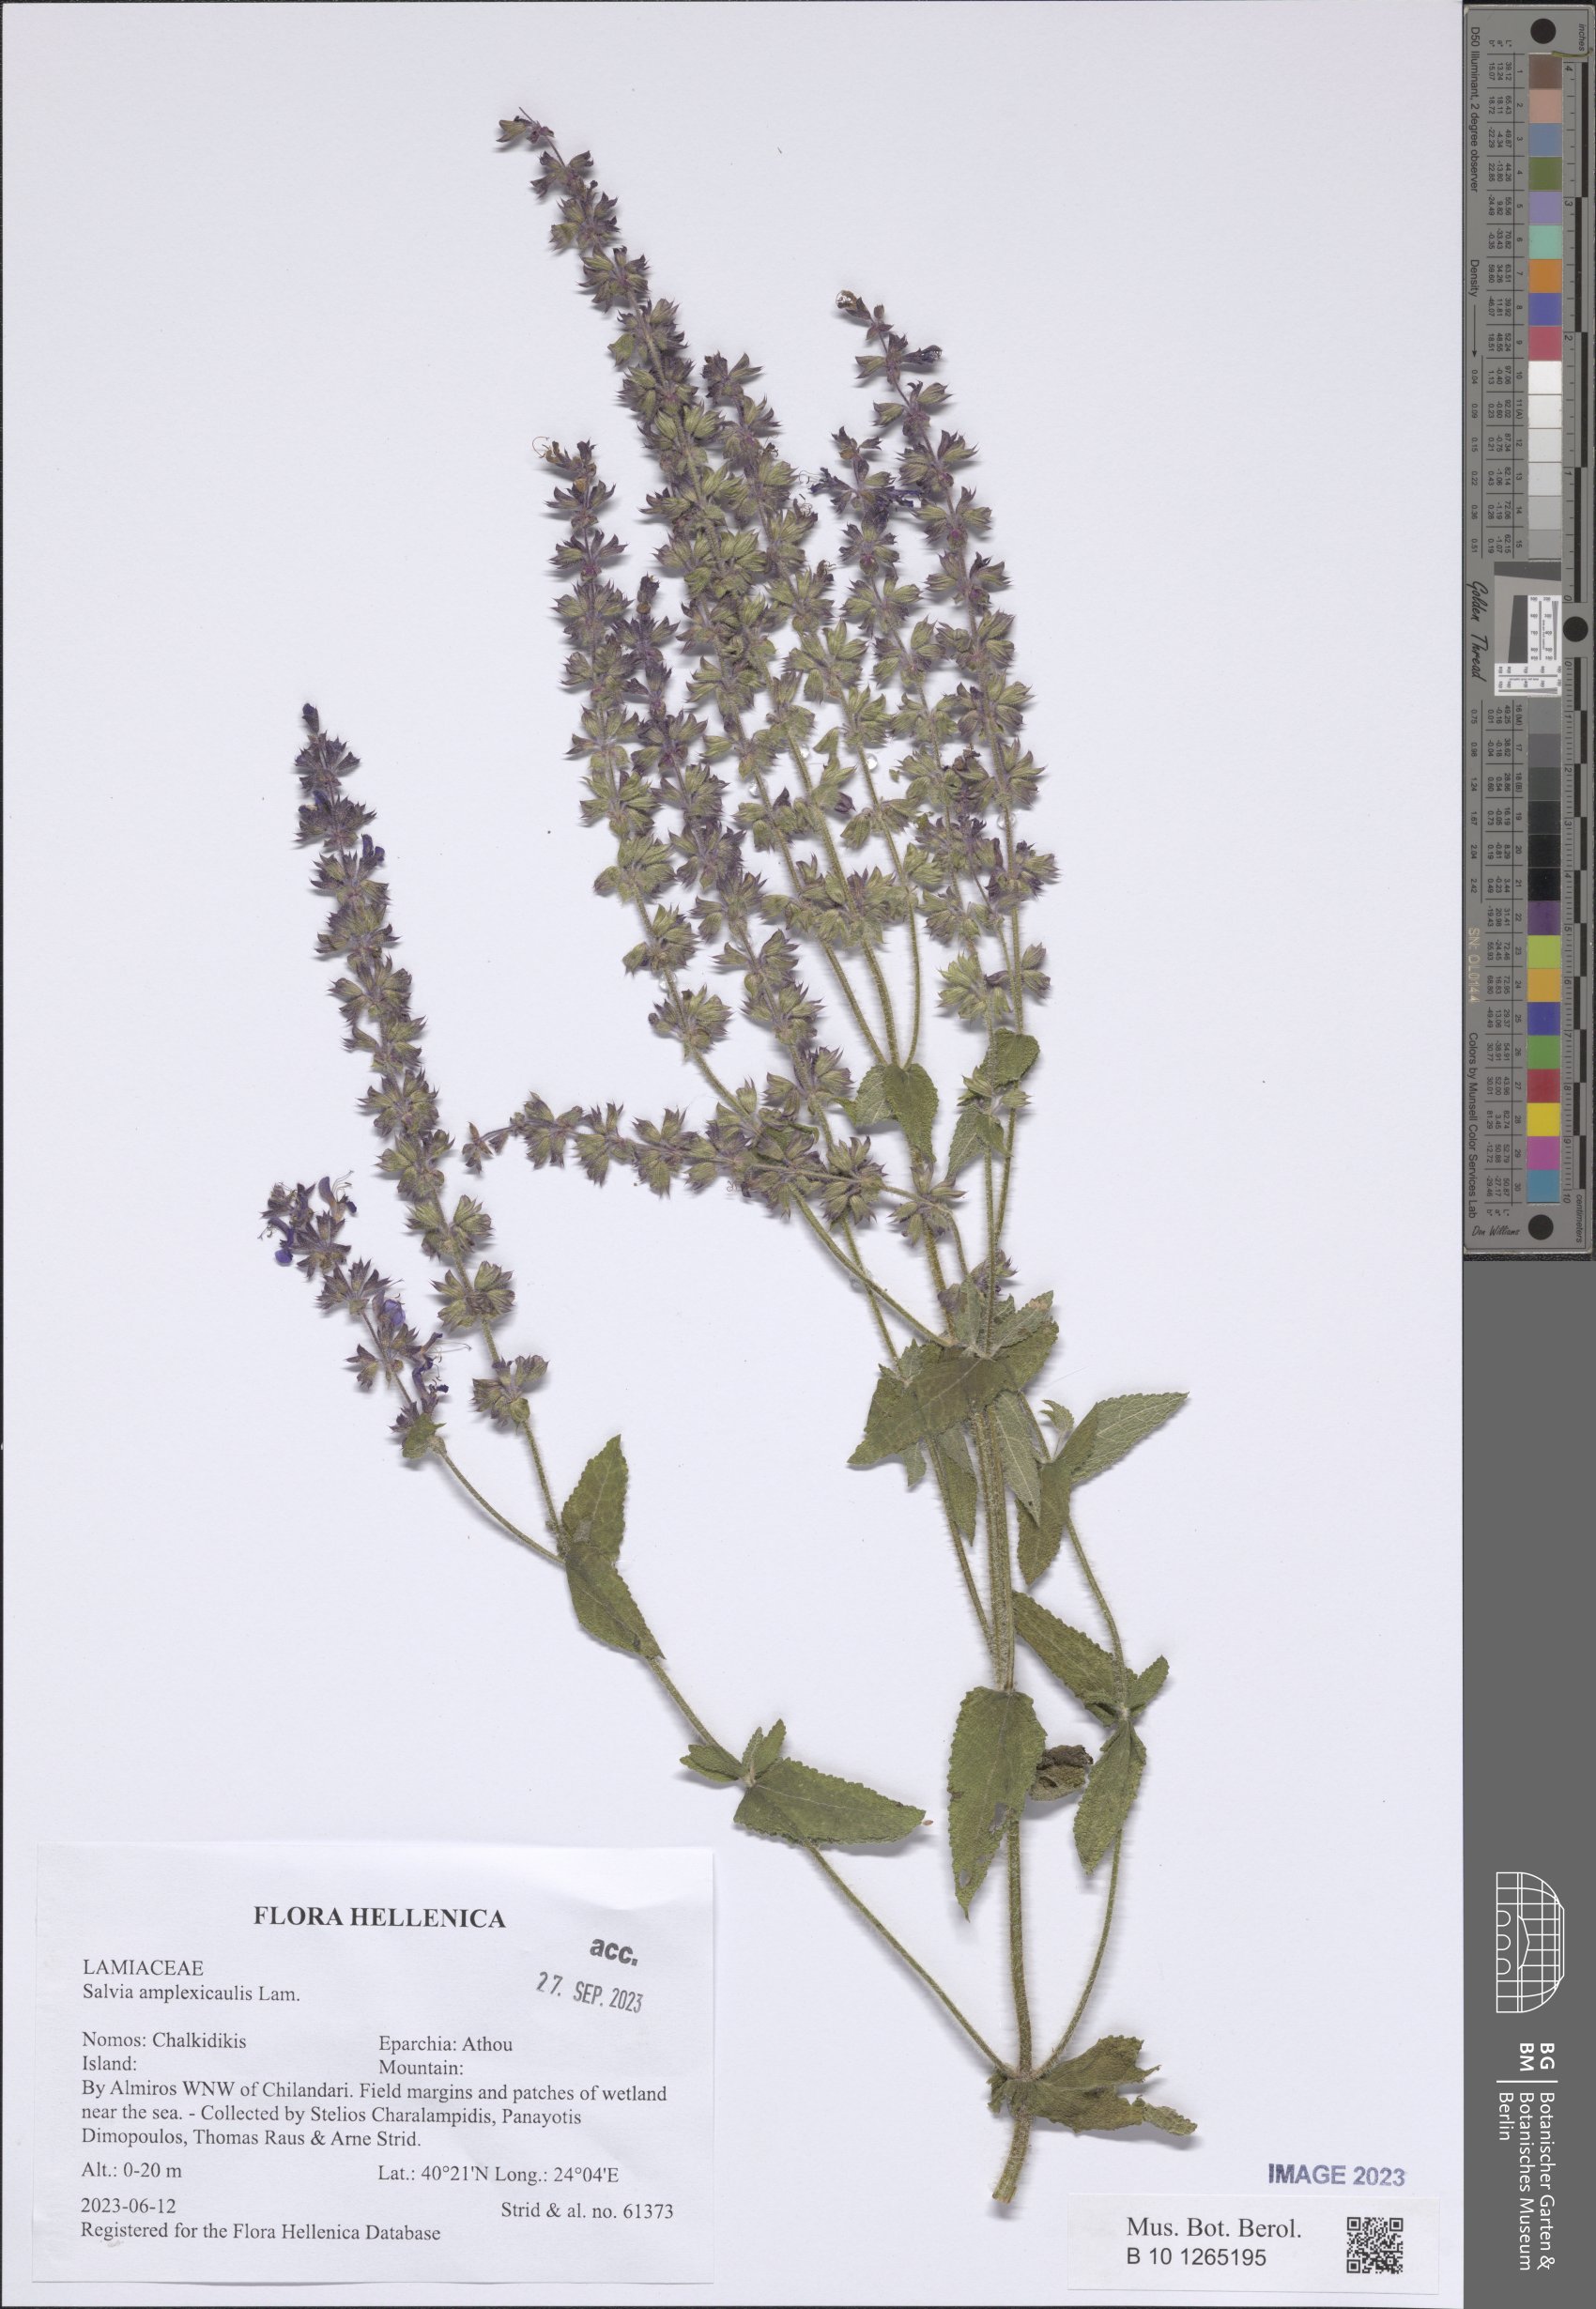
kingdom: Plantae
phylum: Tracheophyta
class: Magnoliopsida
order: Lamiales
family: Lamiaceae
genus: Salvia
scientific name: Salvia amplexicaulis
